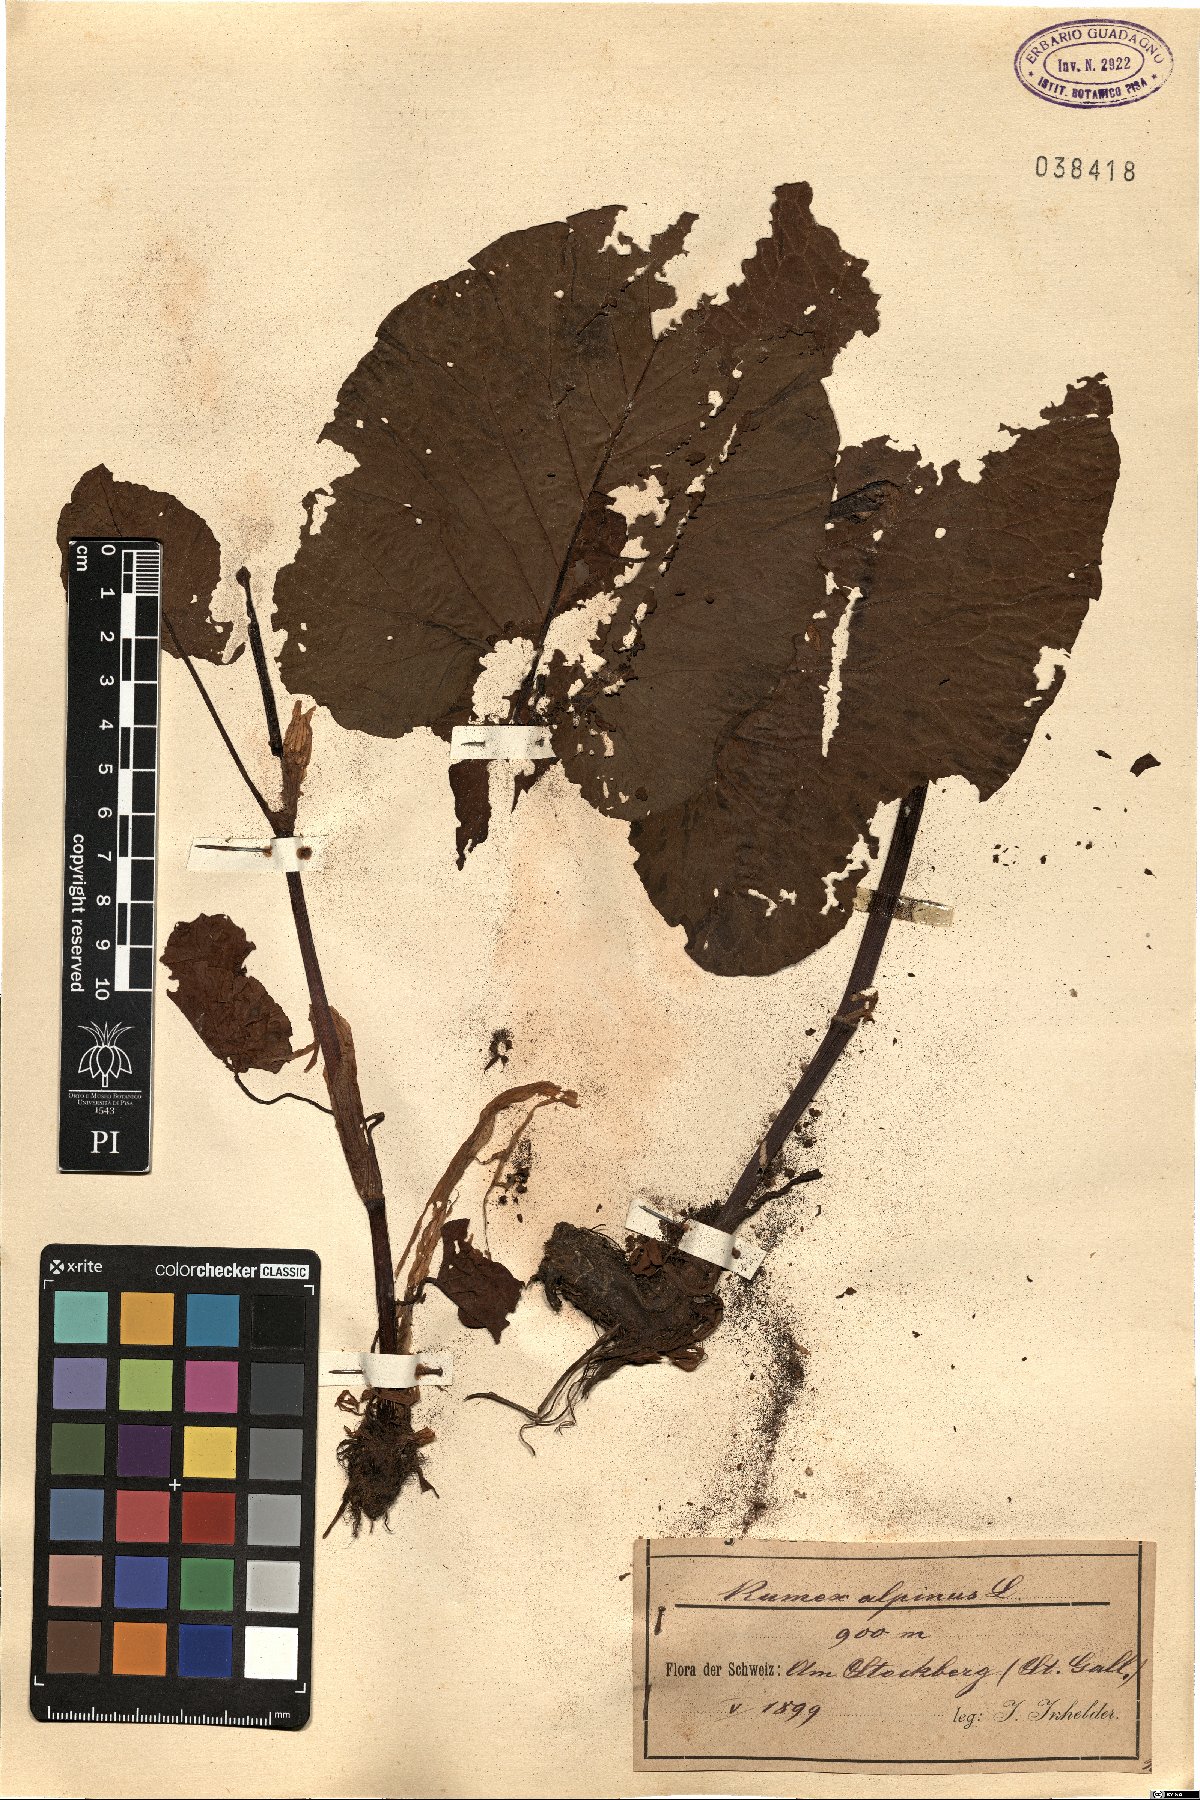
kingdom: Plantae
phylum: Tracheophyta
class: Magnoliopsida
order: Caryophyllales
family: Polygonaceae
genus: Rumex
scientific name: Rumex alpinus
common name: Alpine dock
